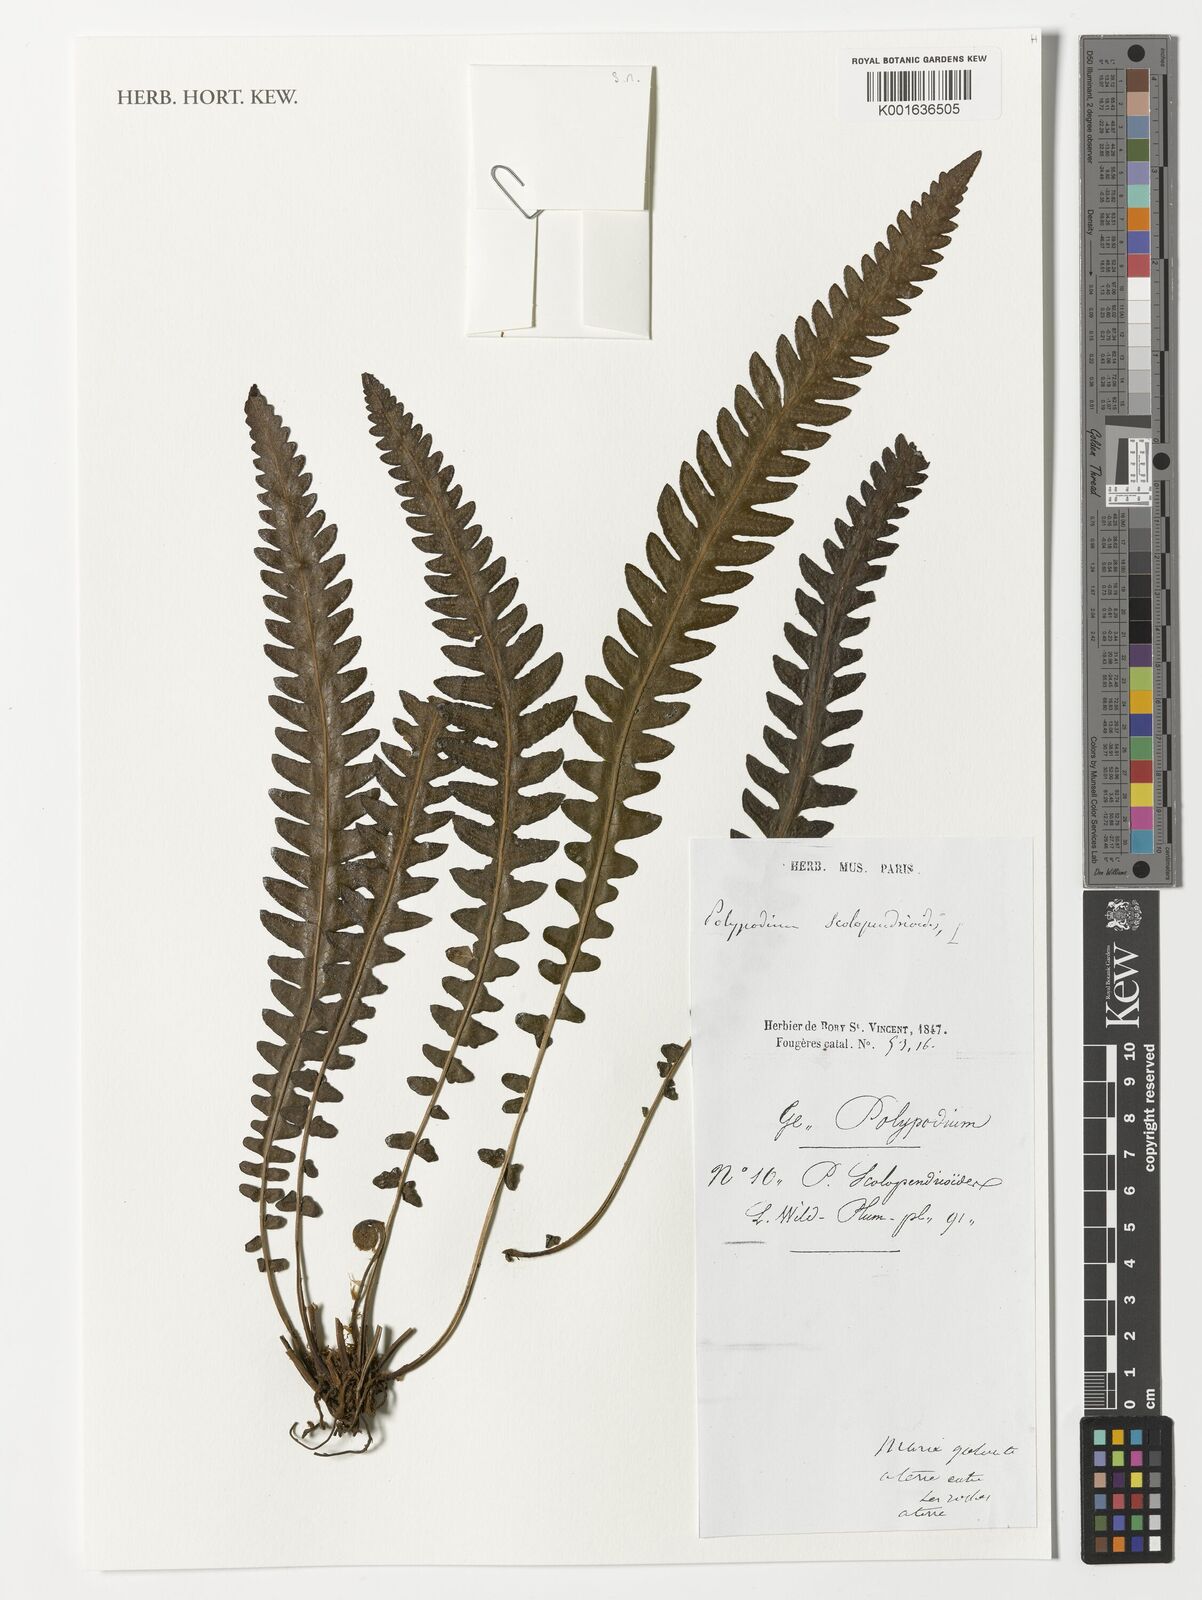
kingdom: Plantae
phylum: Tracheophyta
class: Polypodiopsida
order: Polypodiales
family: Thelypteridaceae
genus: Goniopteris
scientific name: Goniopteris domingensis
